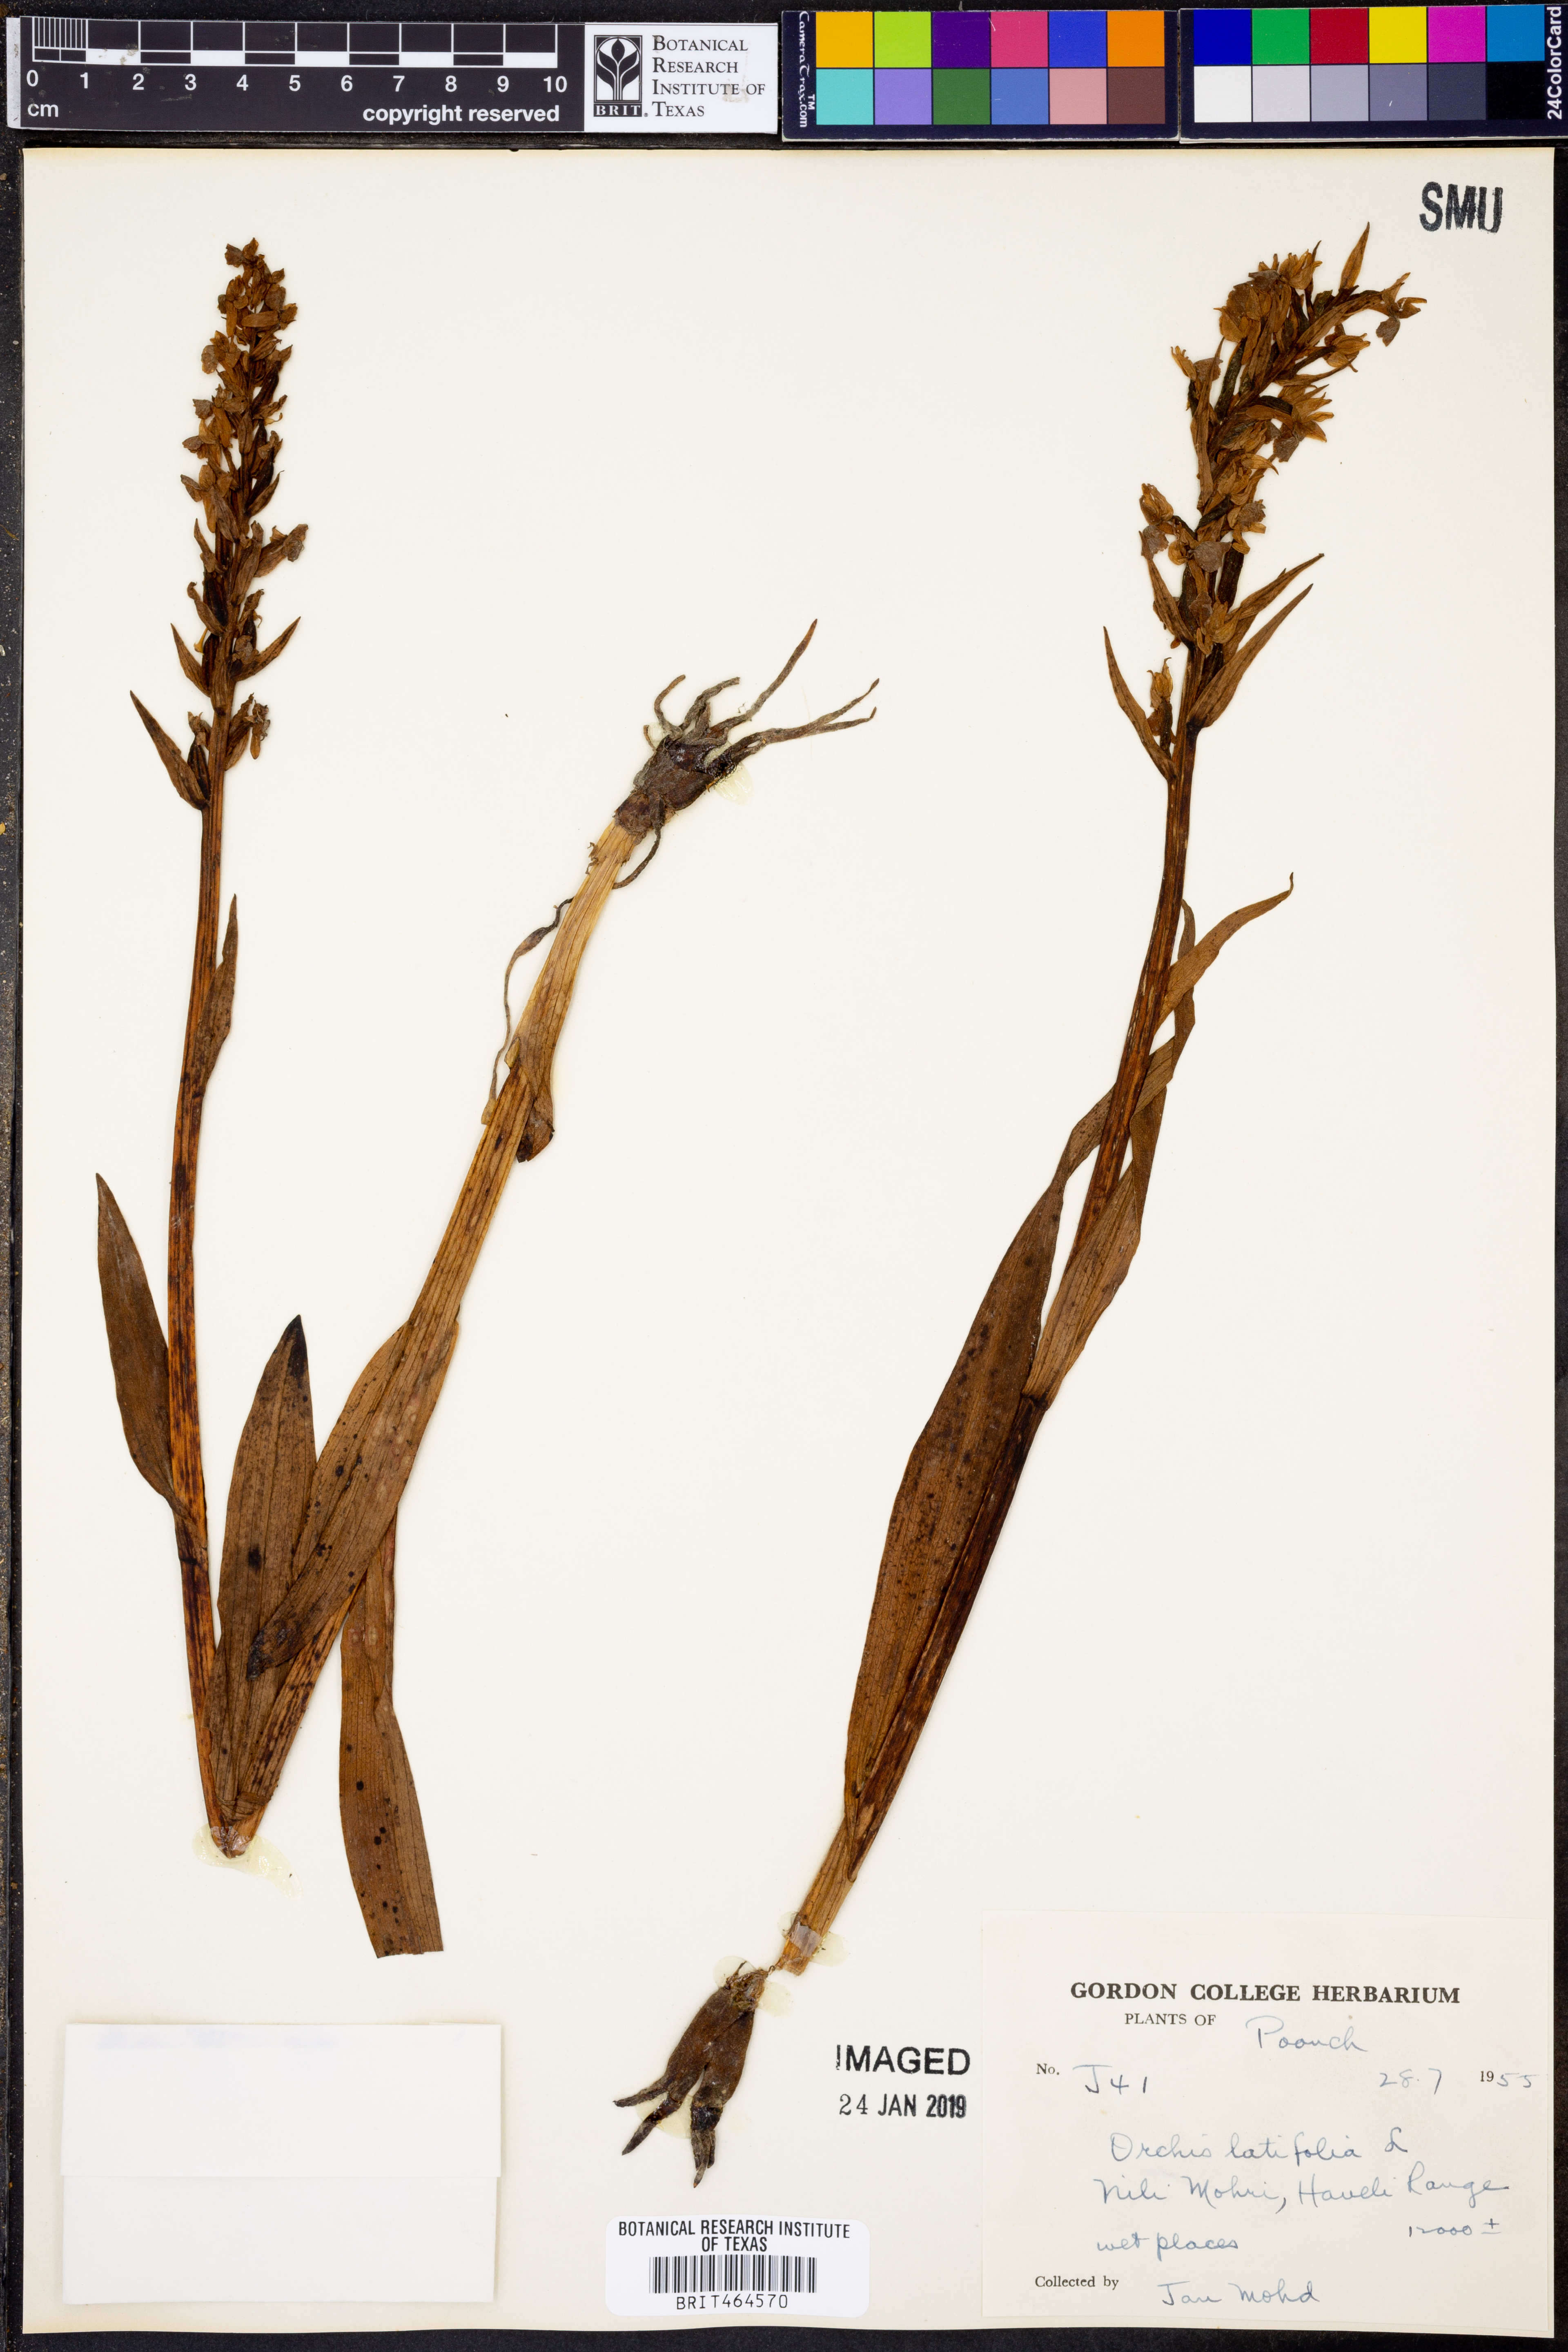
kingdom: Plantae
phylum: Tracheophyta
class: Liliopsida
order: Asparagales
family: Orchidaceae
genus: Dactylorhiza
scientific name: Dactylorhiza incarnata
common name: Early marsh-orchid
